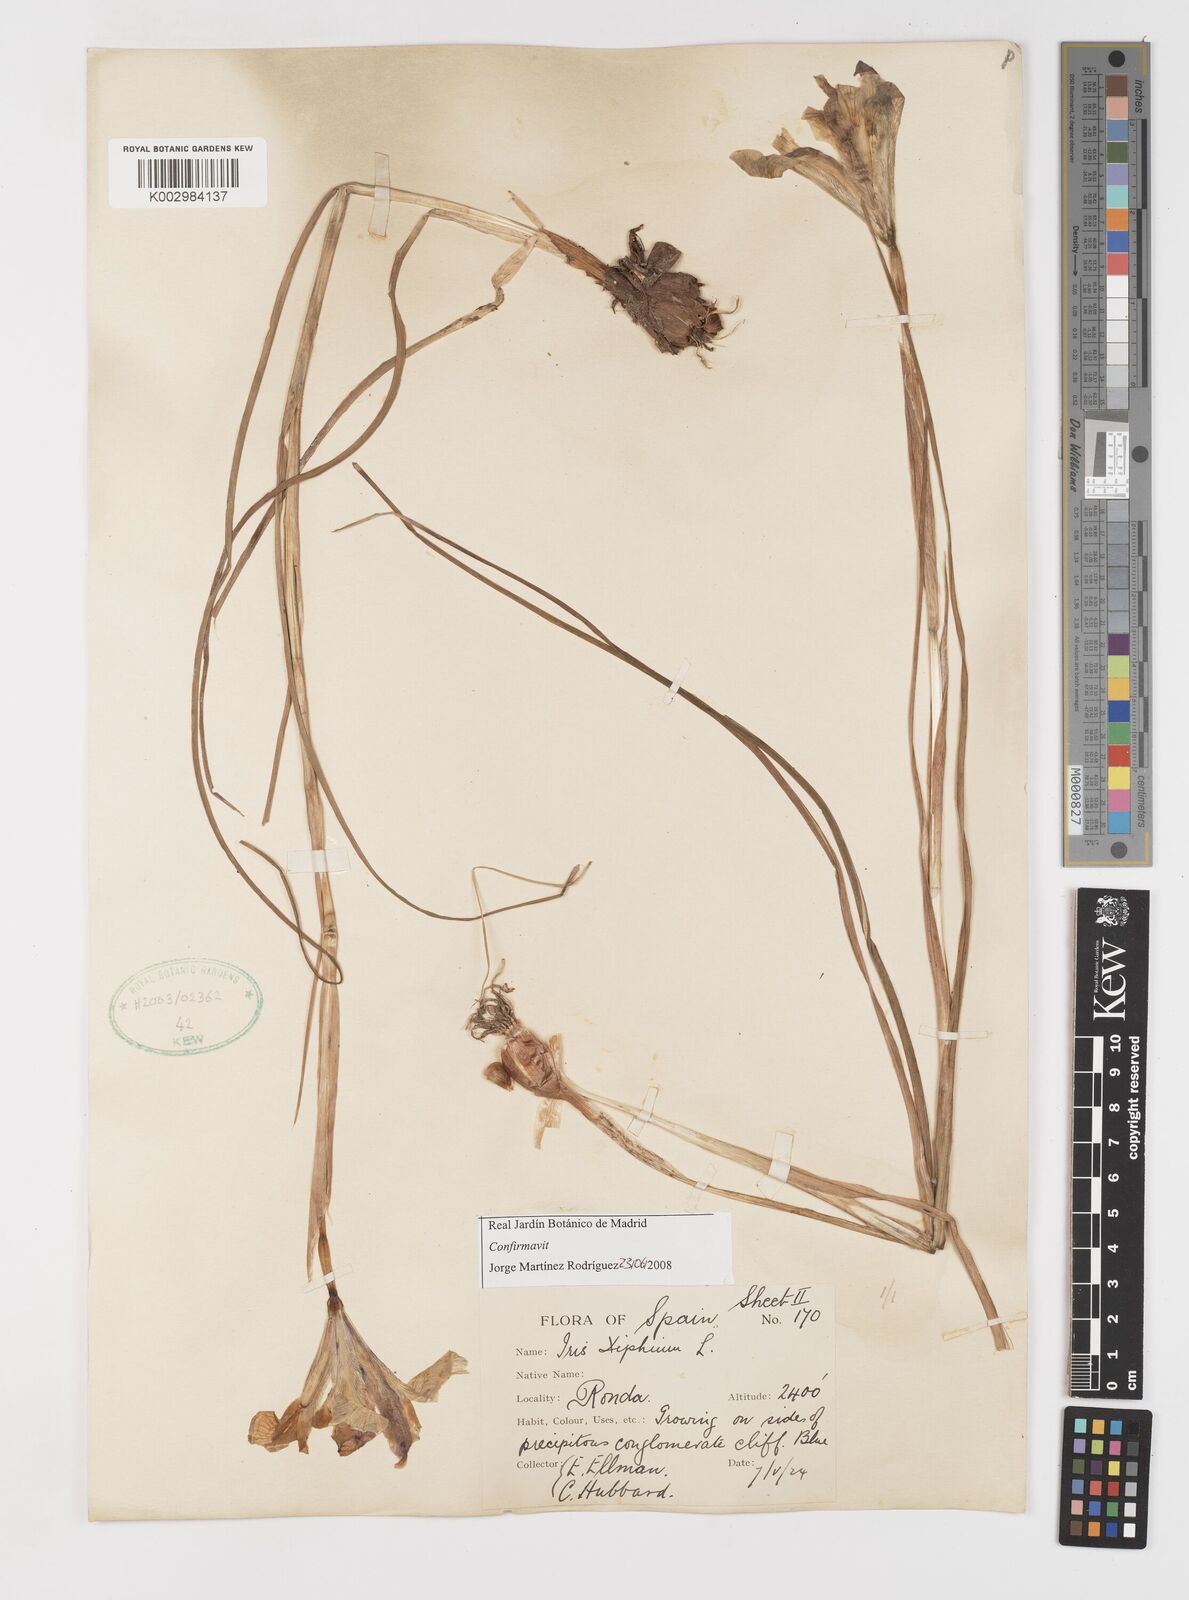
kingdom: Plantae
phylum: Tracheophyta
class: Liliopsida
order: Asparagales
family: Iridaceae
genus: Iris
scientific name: Iris xiphium
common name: Spanish iris
